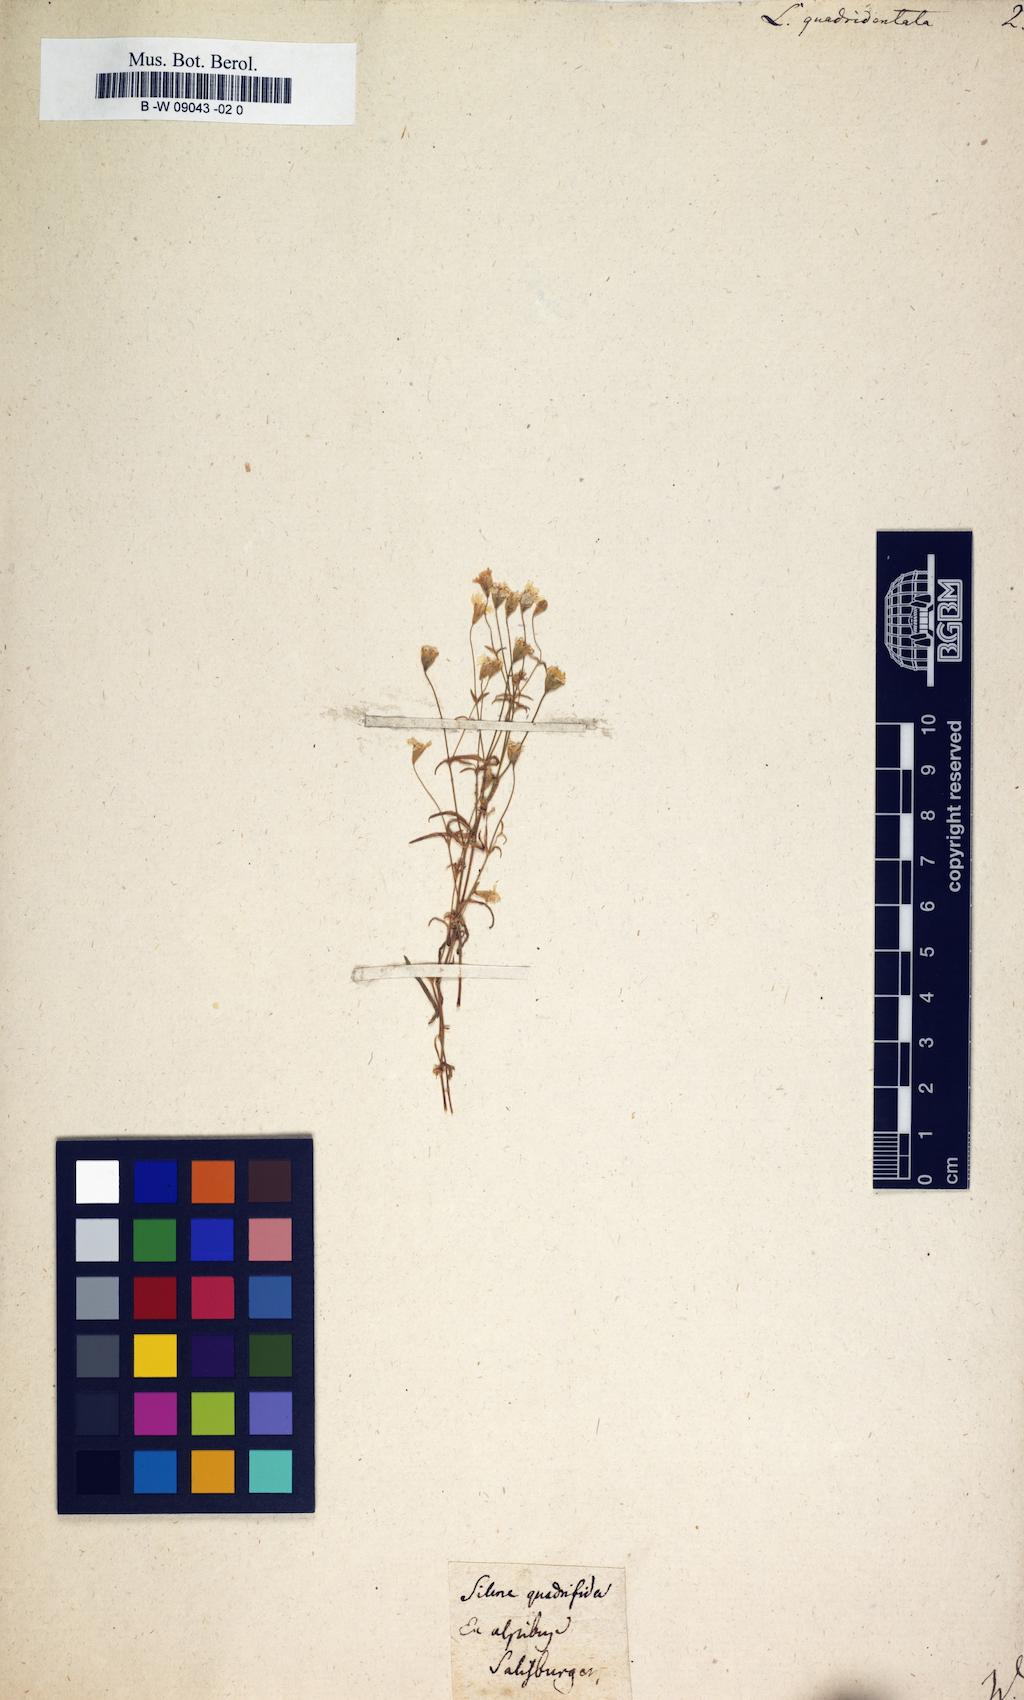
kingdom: Plantae
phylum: Tracheophyta
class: Magnoliopsida
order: Caryophyllales
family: Caryophyllaceae
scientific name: Caryophyllaceae
